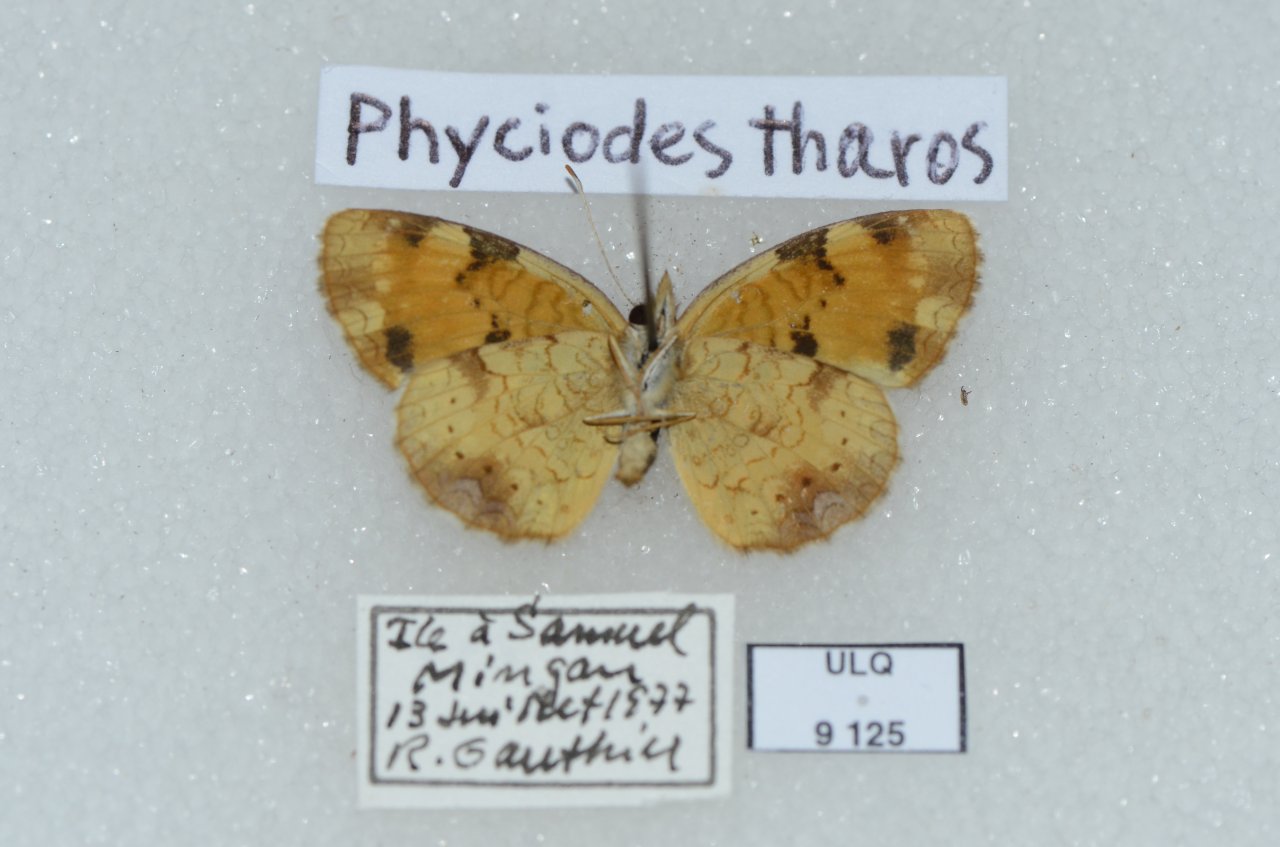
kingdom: Animalia
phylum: Arthropoda
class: Insecta
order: Lepidoptera
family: Nymphalidae
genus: Phyciodes
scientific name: Phyciodes tharos
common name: Northern Crescent
